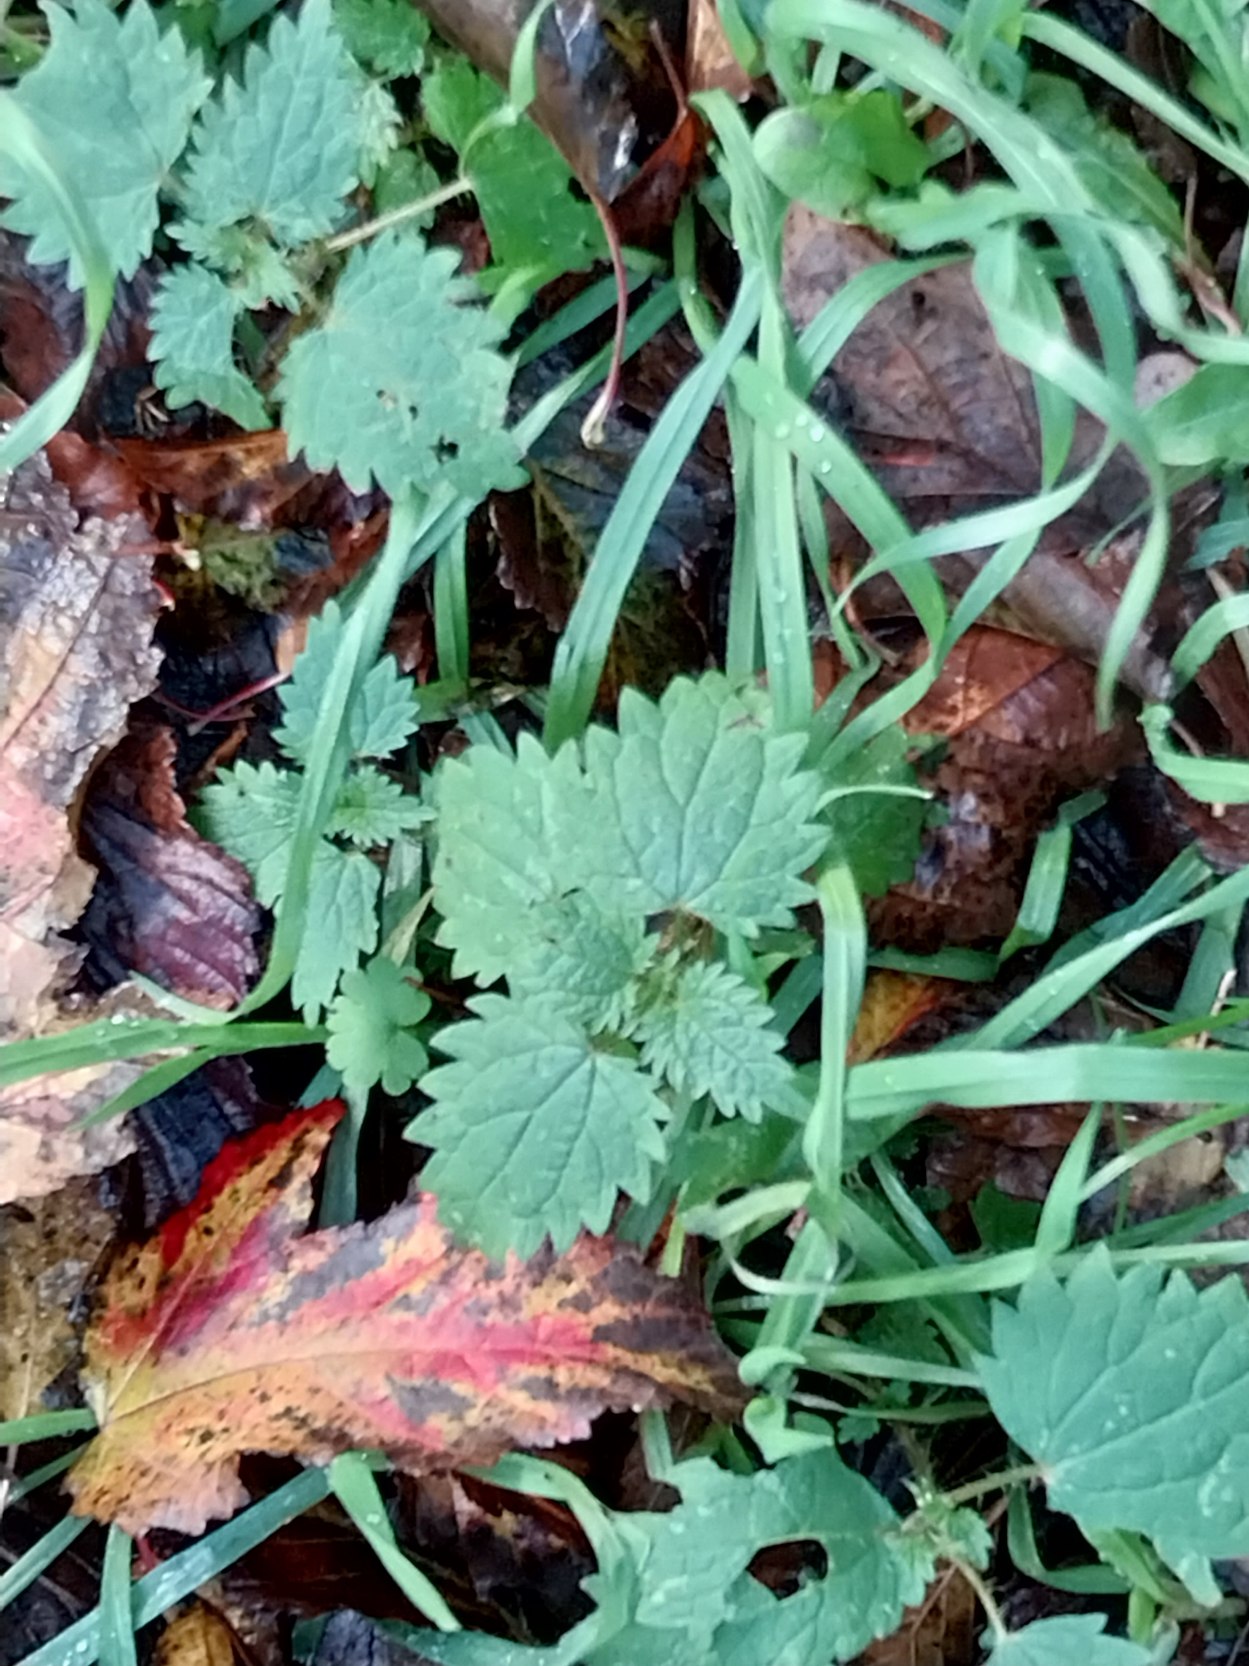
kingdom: Plantae
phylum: Tracheophyta
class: Magnoliopsida
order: Rosales
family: Urticaceae
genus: Urtica
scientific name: Urtica dioica
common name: Stor nælde
